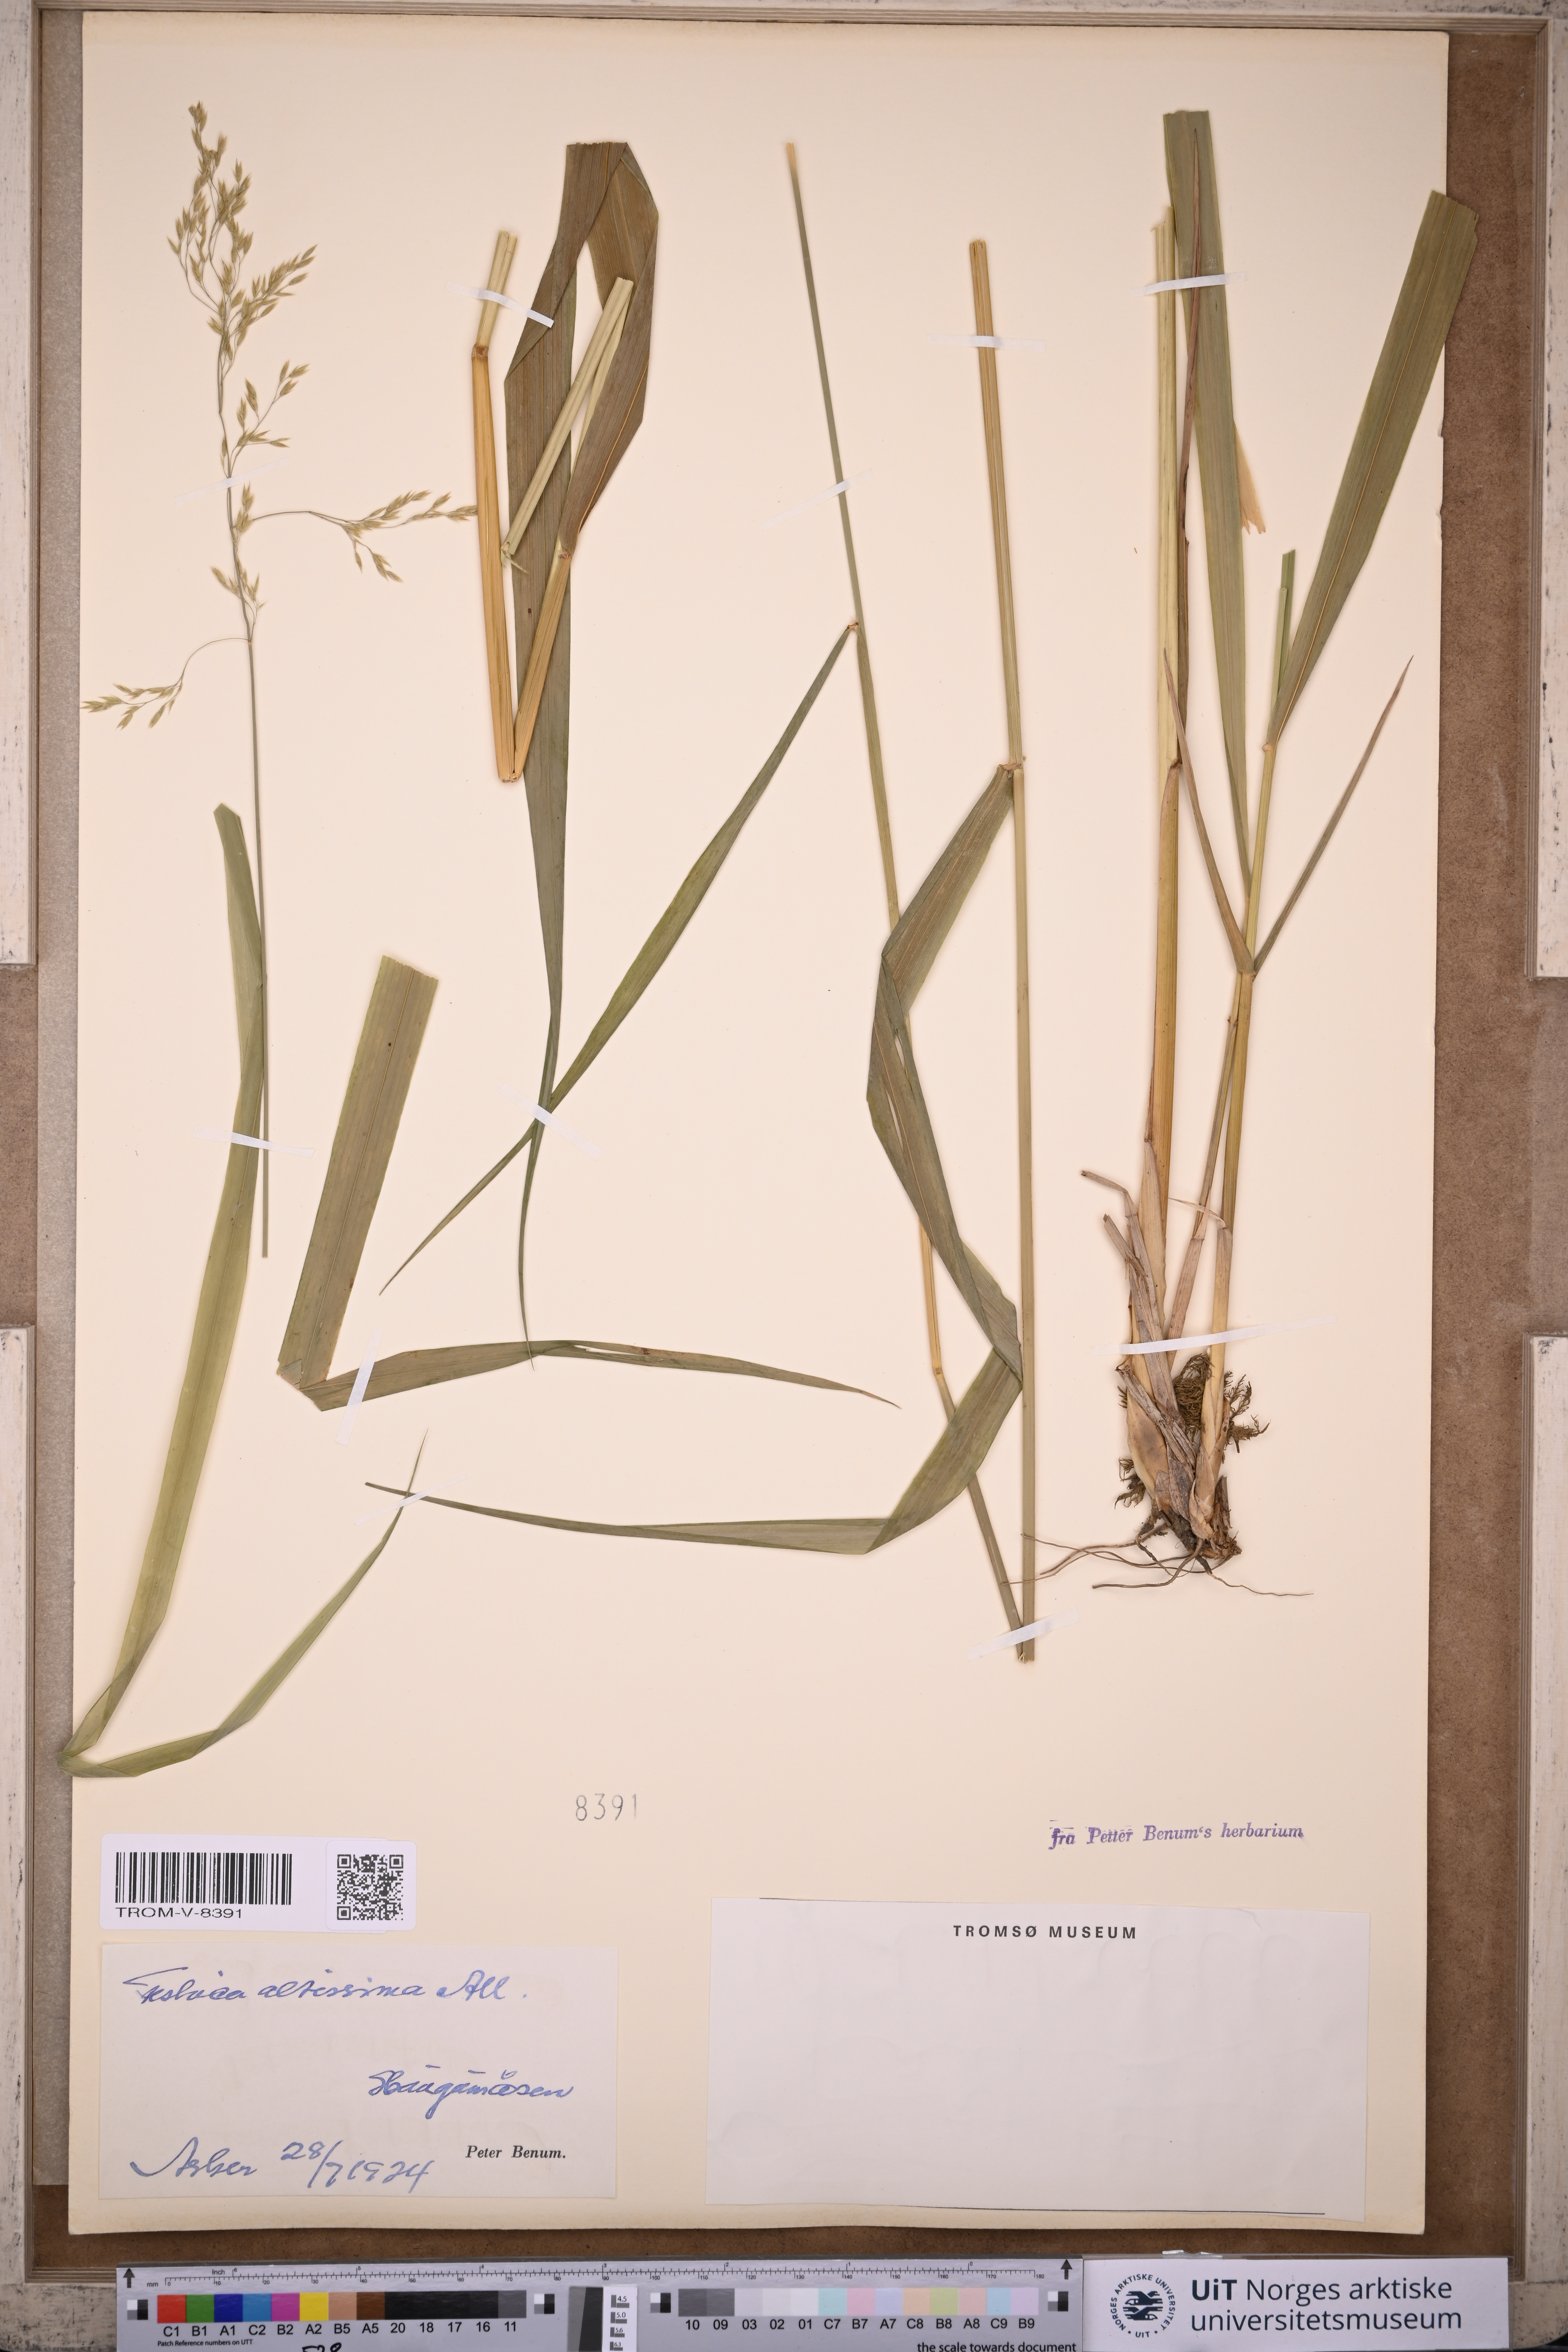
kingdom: Plantae
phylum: Tracheophyta
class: Liliopsida
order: Poales
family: Poaceae
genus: Festuca
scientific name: Festuca altissima
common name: Wood fescue
